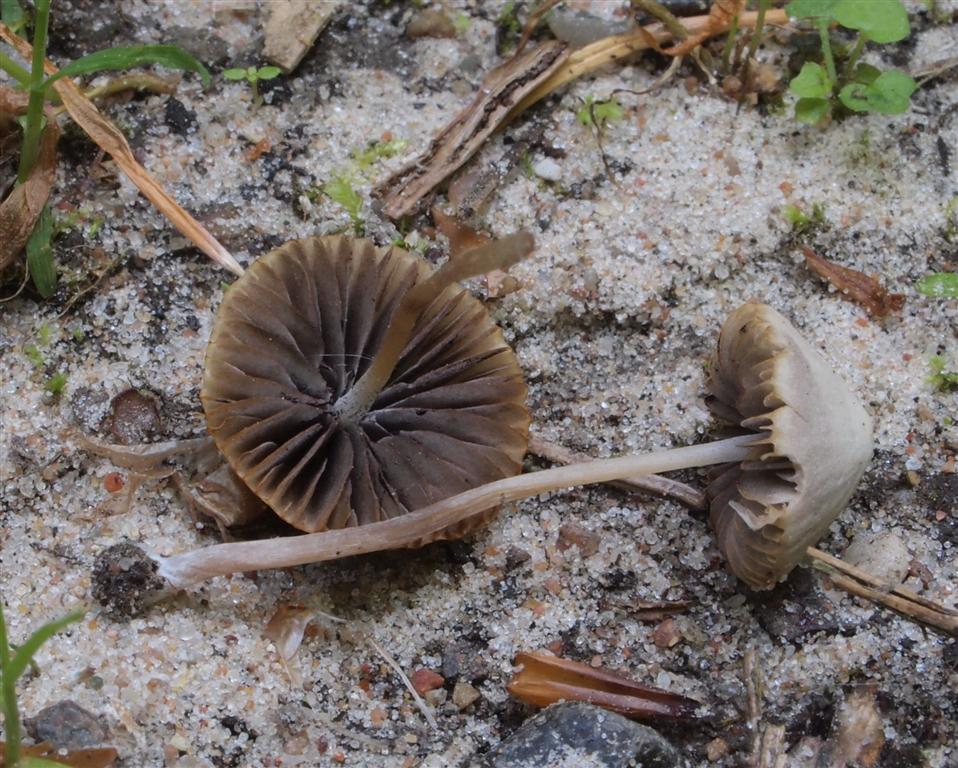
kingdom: Fungi
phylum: Basidiomycota
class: Agaricomycetes
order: Agaricales
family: Psathyrellaceae
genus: Psathyrella
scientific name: Psathyrella prona
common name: vej-mørkhat
